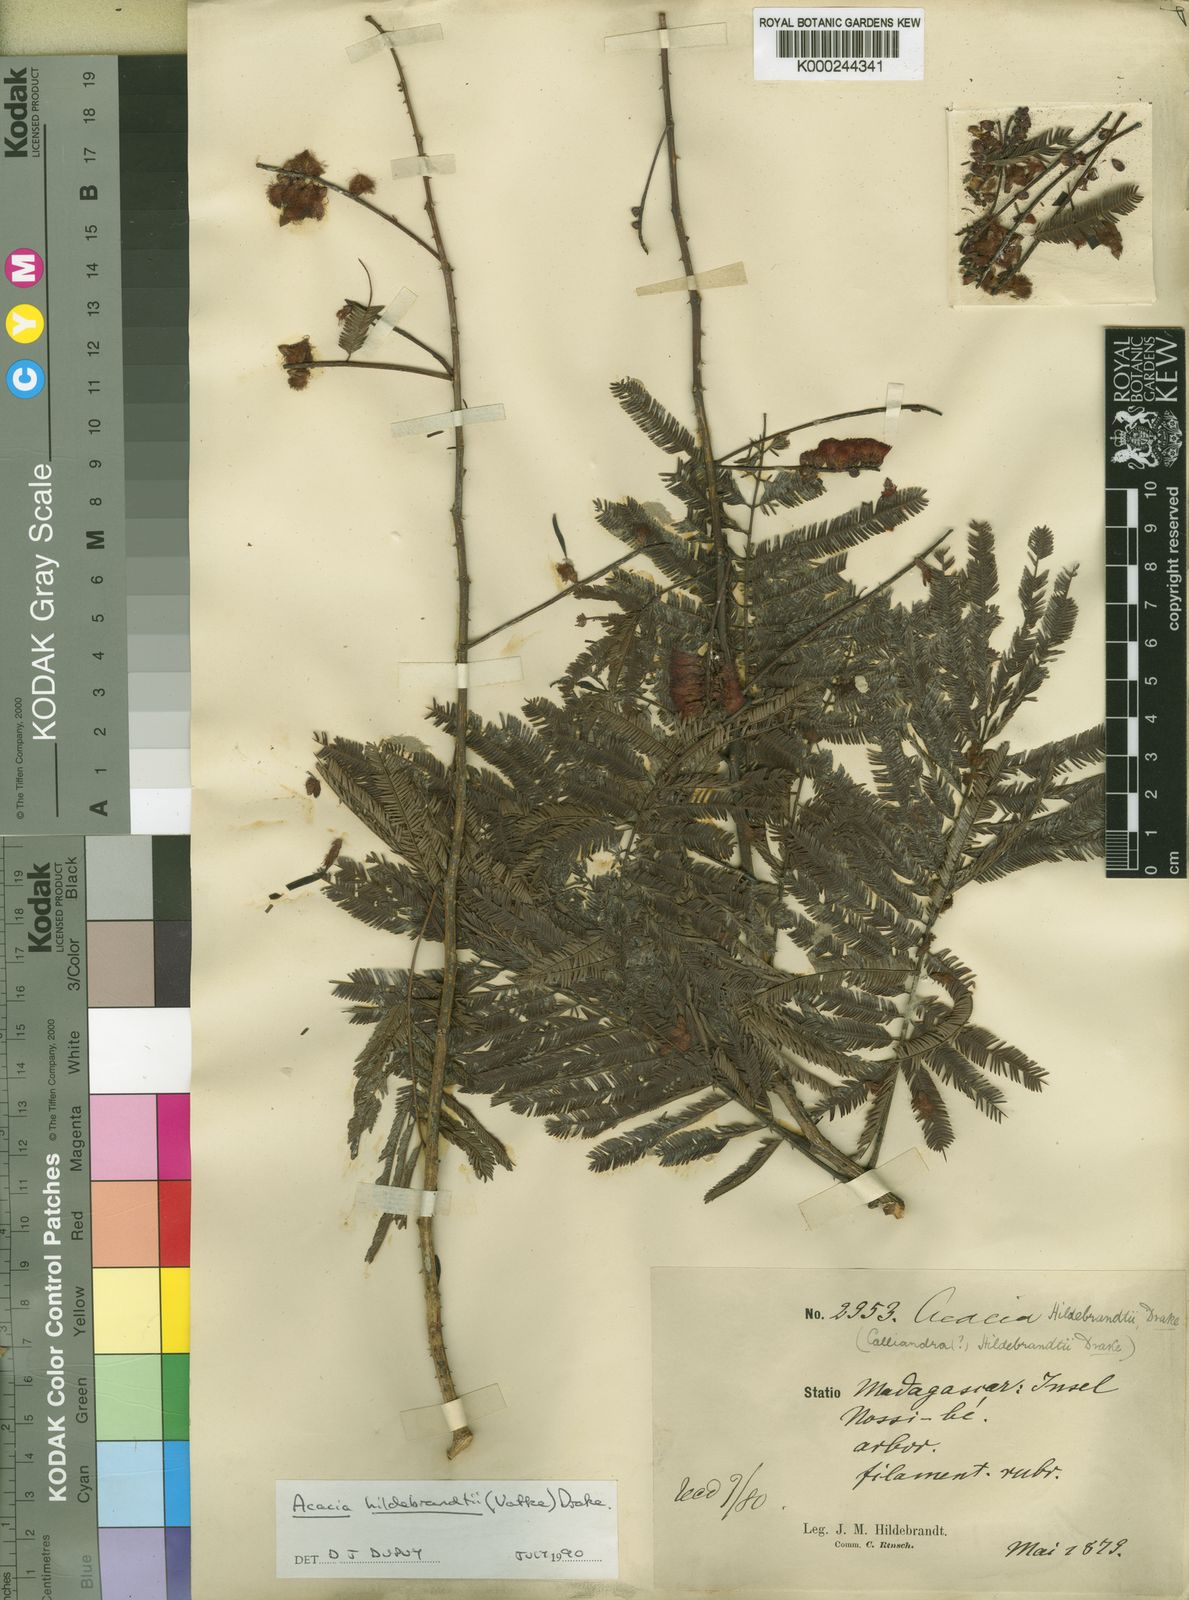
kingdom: Plantae
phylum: Tracheophyta
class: Magnoliopsida
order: Fabales
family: Fabaceae
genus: Senegalia
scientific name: Senegalia hildebrandtii
